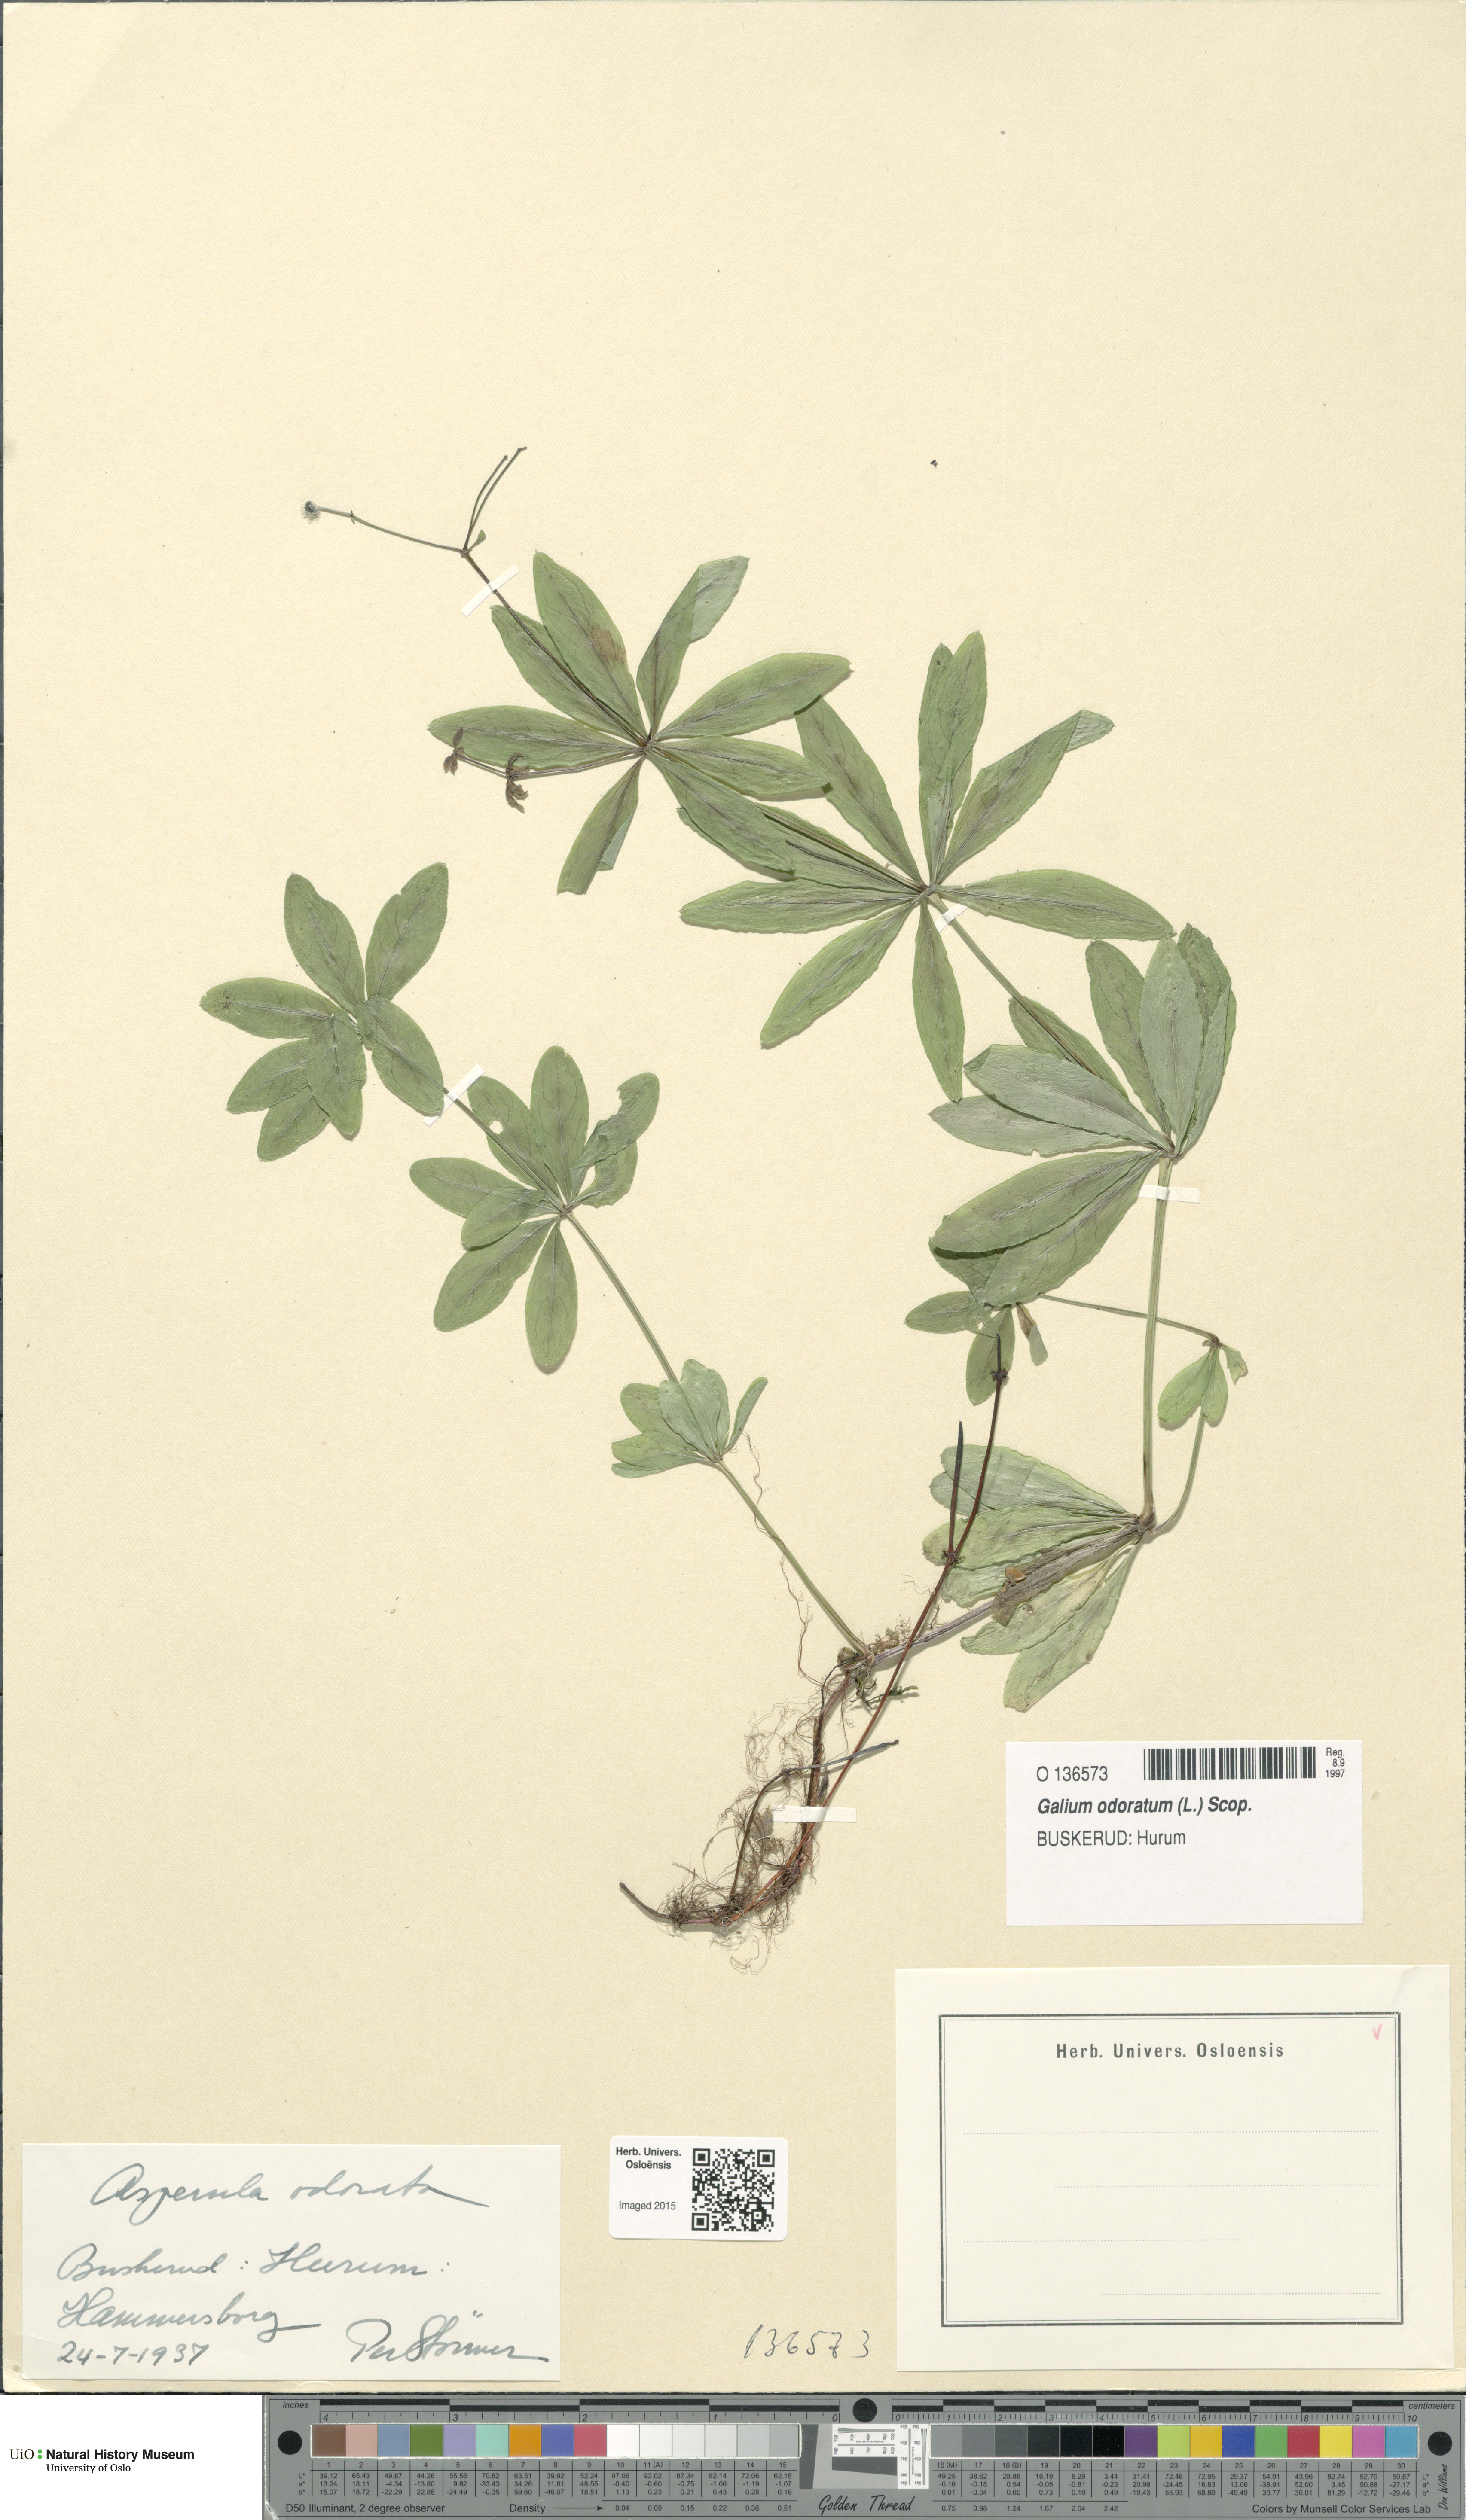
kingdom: Plantae
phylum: Tracheophyta
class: Magnoliopsida
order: Gentianales
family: Rubiaceae
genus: Galium
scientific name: Galium odoratum
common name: Sweet woodruff
